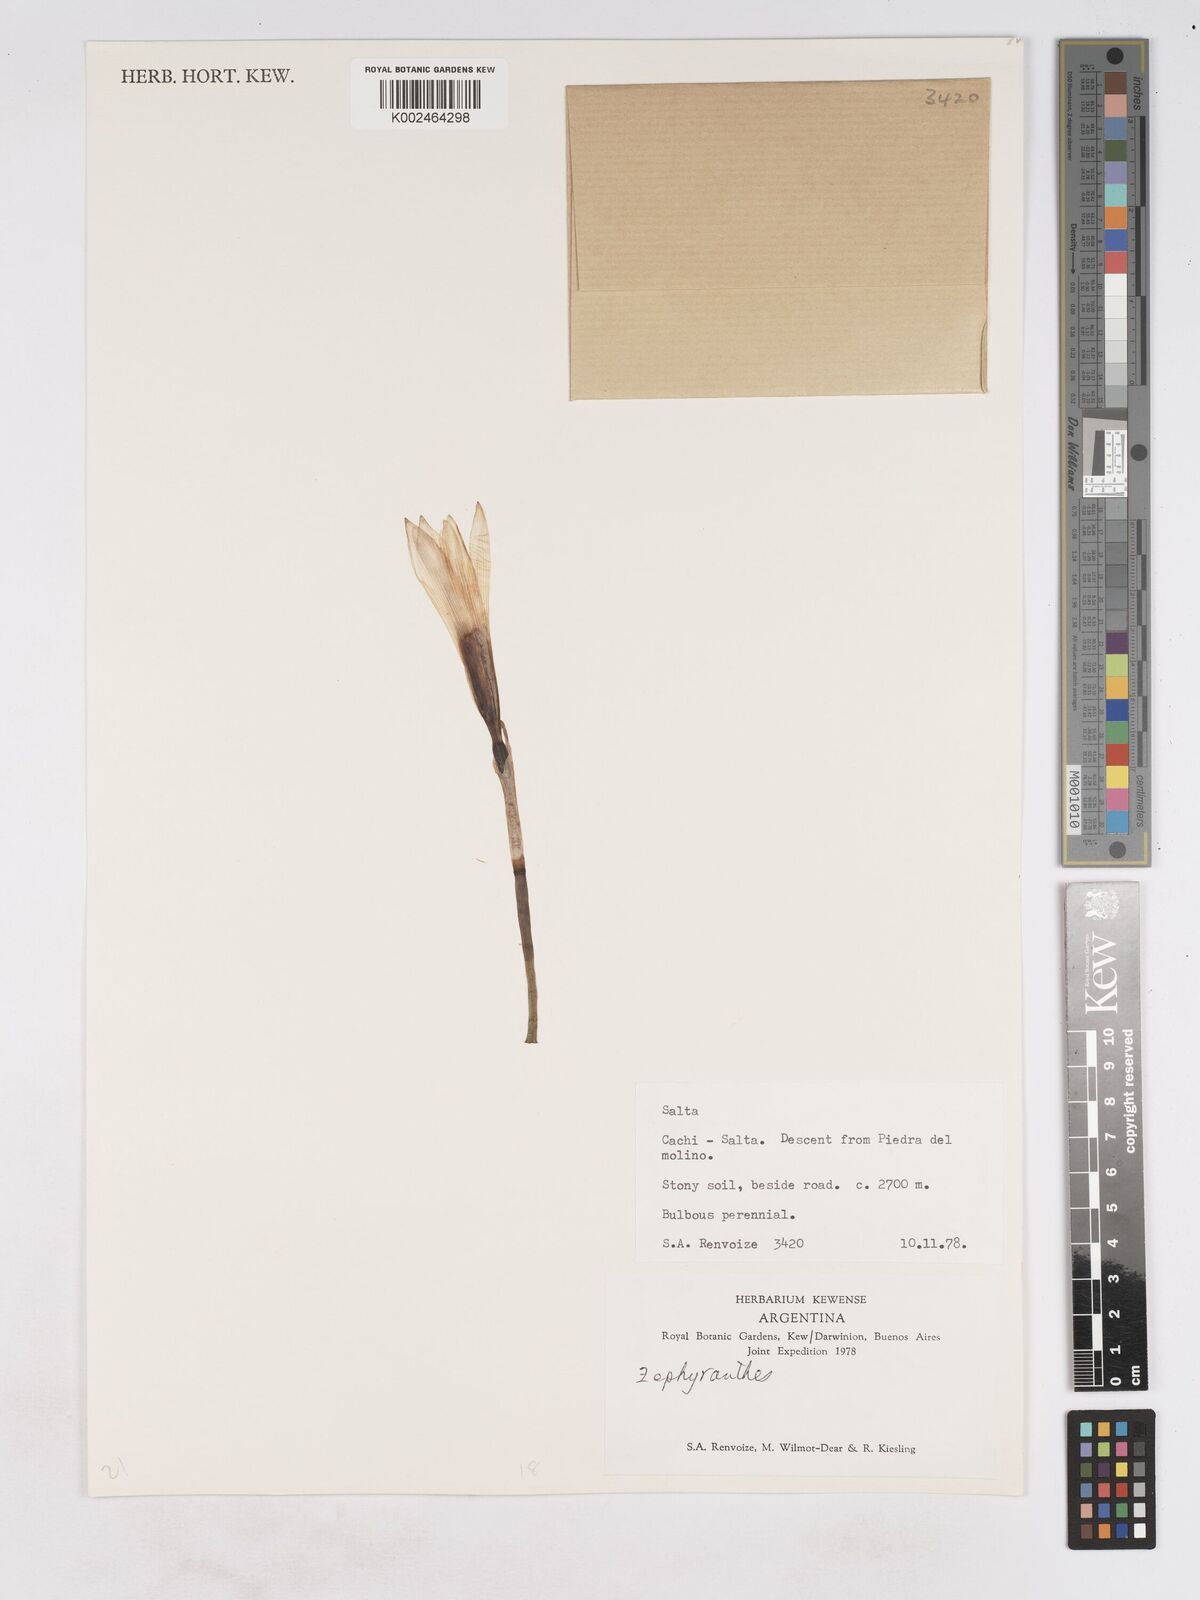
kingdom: Plantae
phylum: Tracheophyta
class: Liliopsida
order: Asparagales
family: Amaryllidaceae
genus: Zephyranthes
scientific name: Zephyranthes
